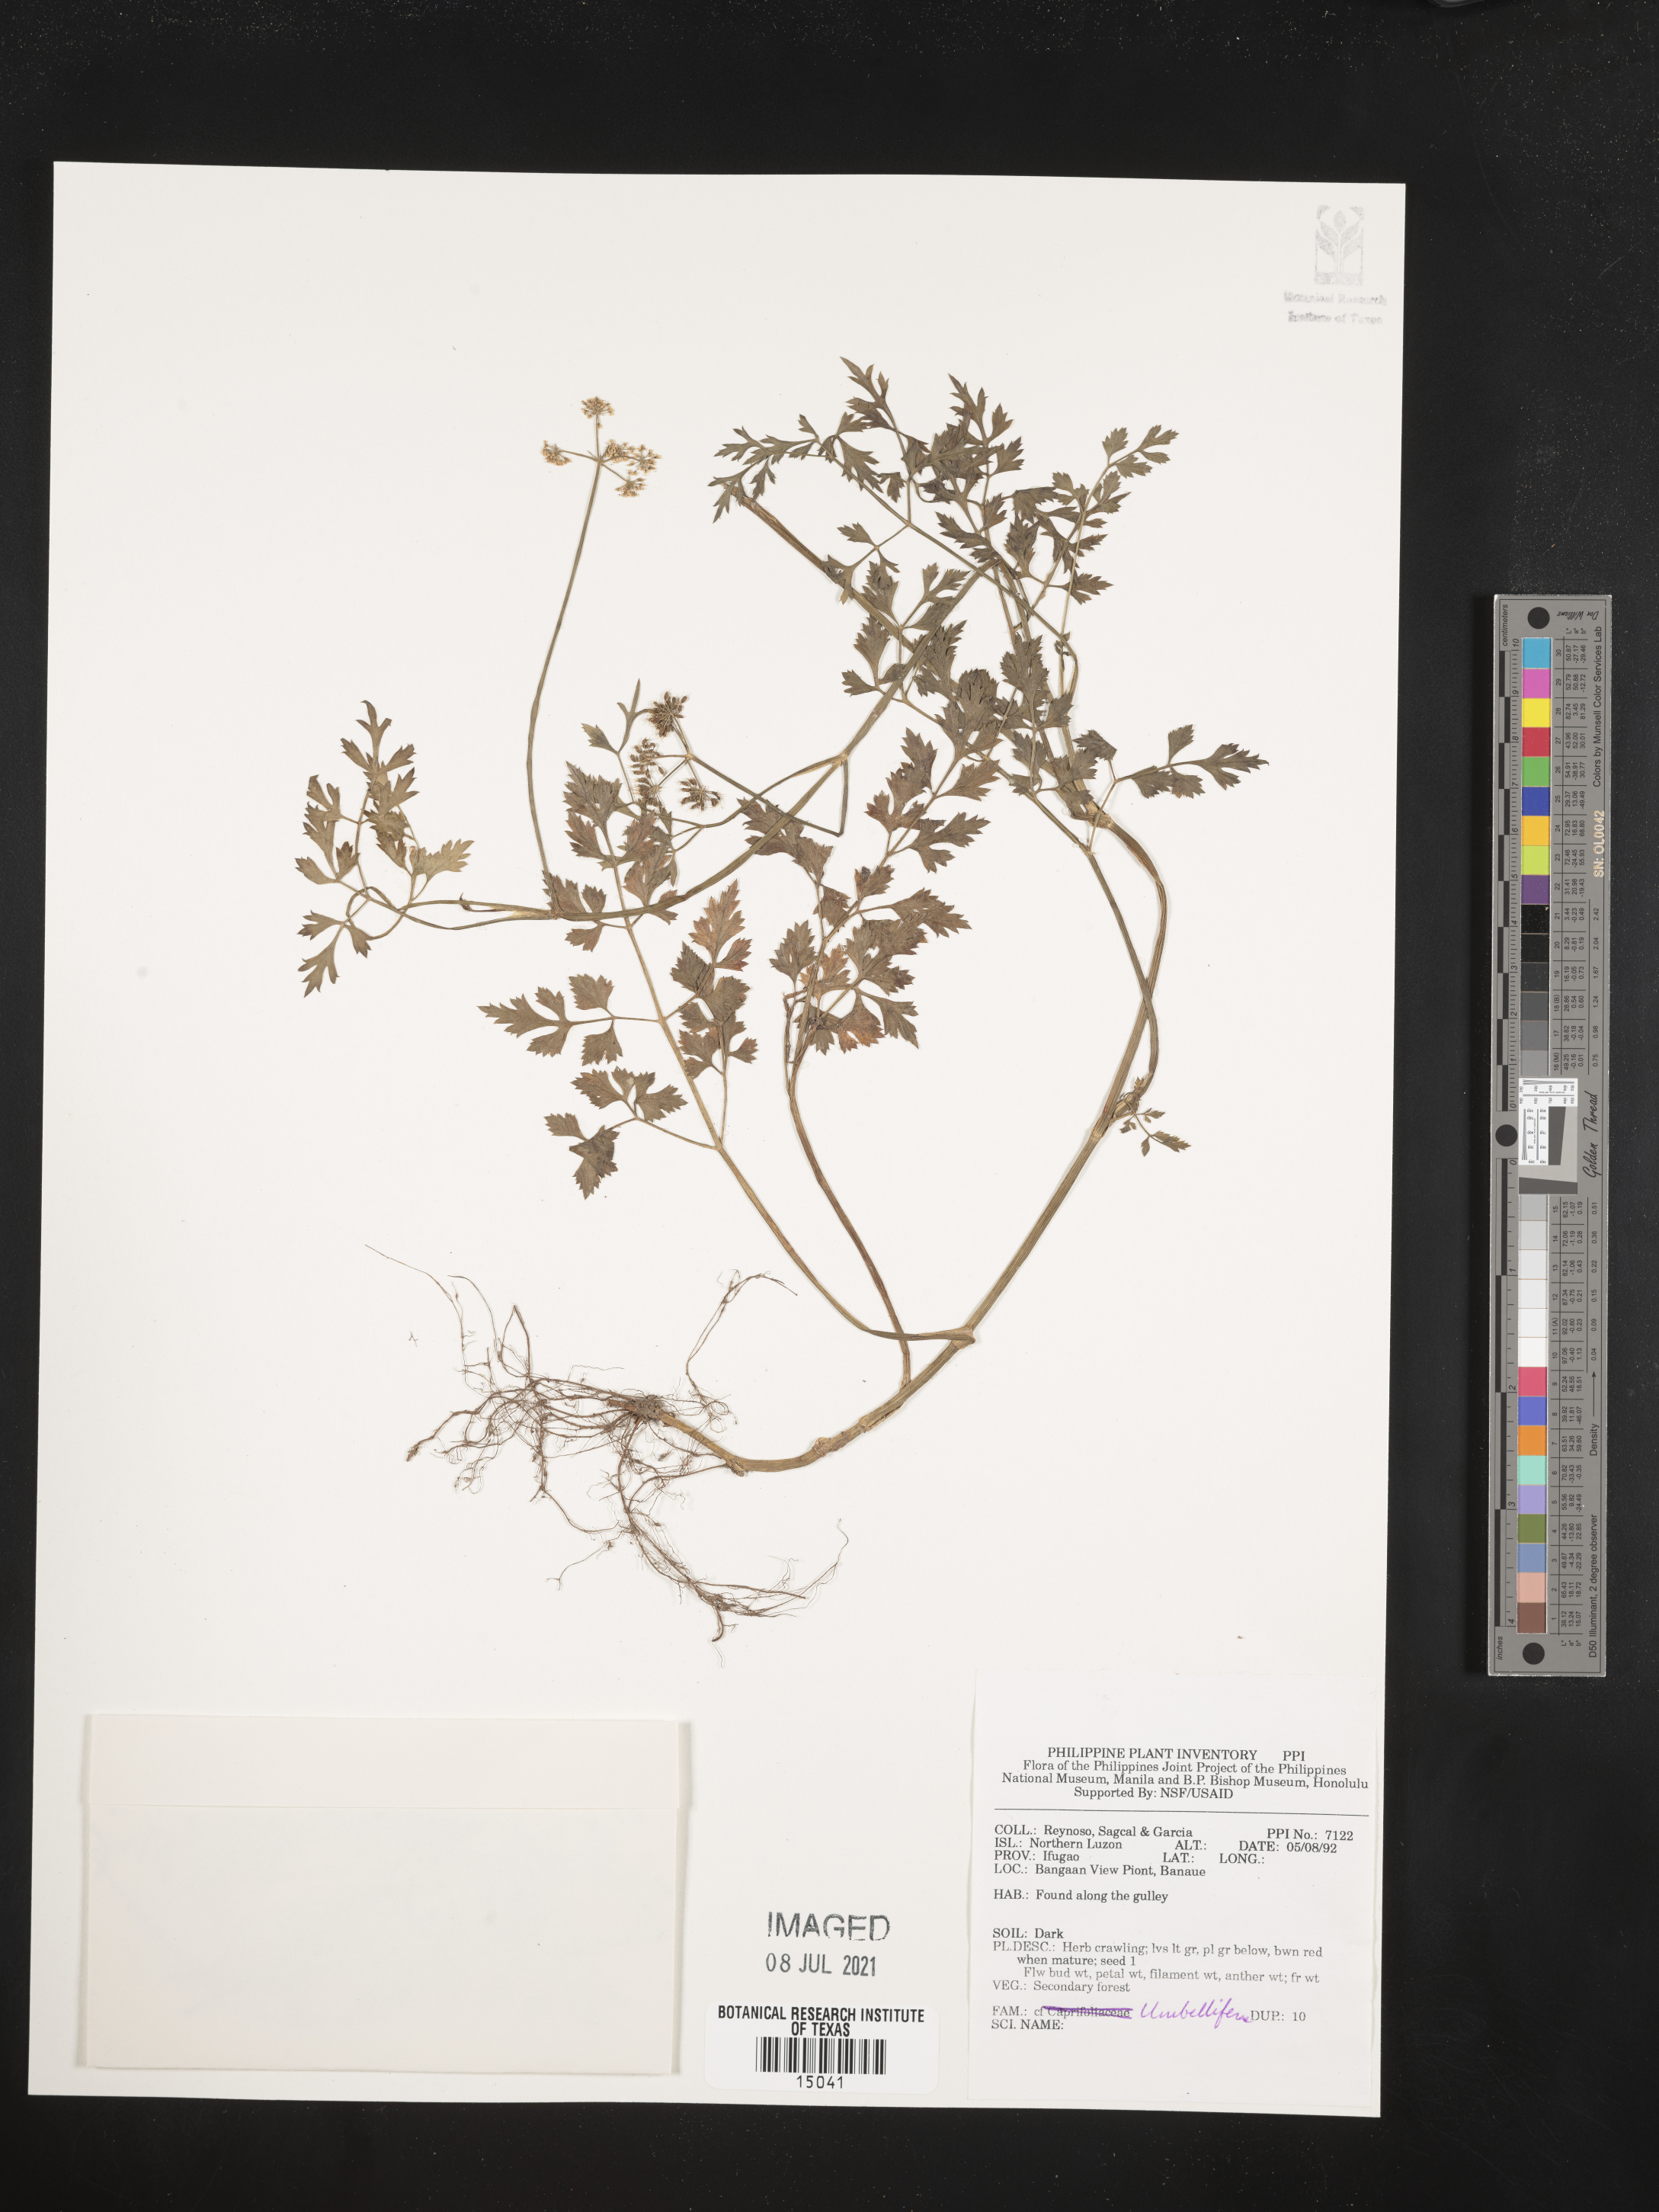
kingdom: Plantae
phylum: Tracheophyta
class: Magnoliopsida
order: Apiales
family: Apiaceae
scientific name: Apiaceae
